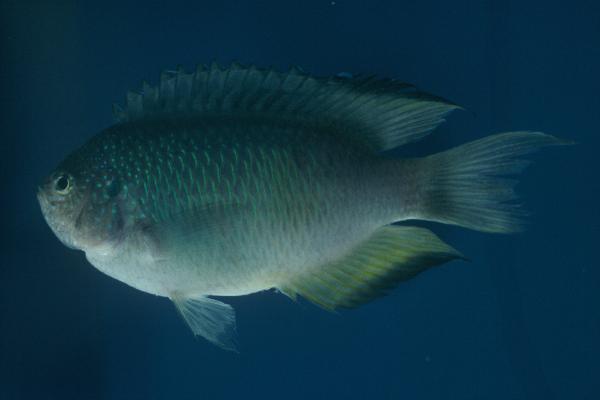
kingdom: Animalia
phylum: Chordata
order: Perciformes
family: Pomacentridae
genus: Pomacentrus
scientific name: Pomacentrus pavo
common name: Sapphire damsel
